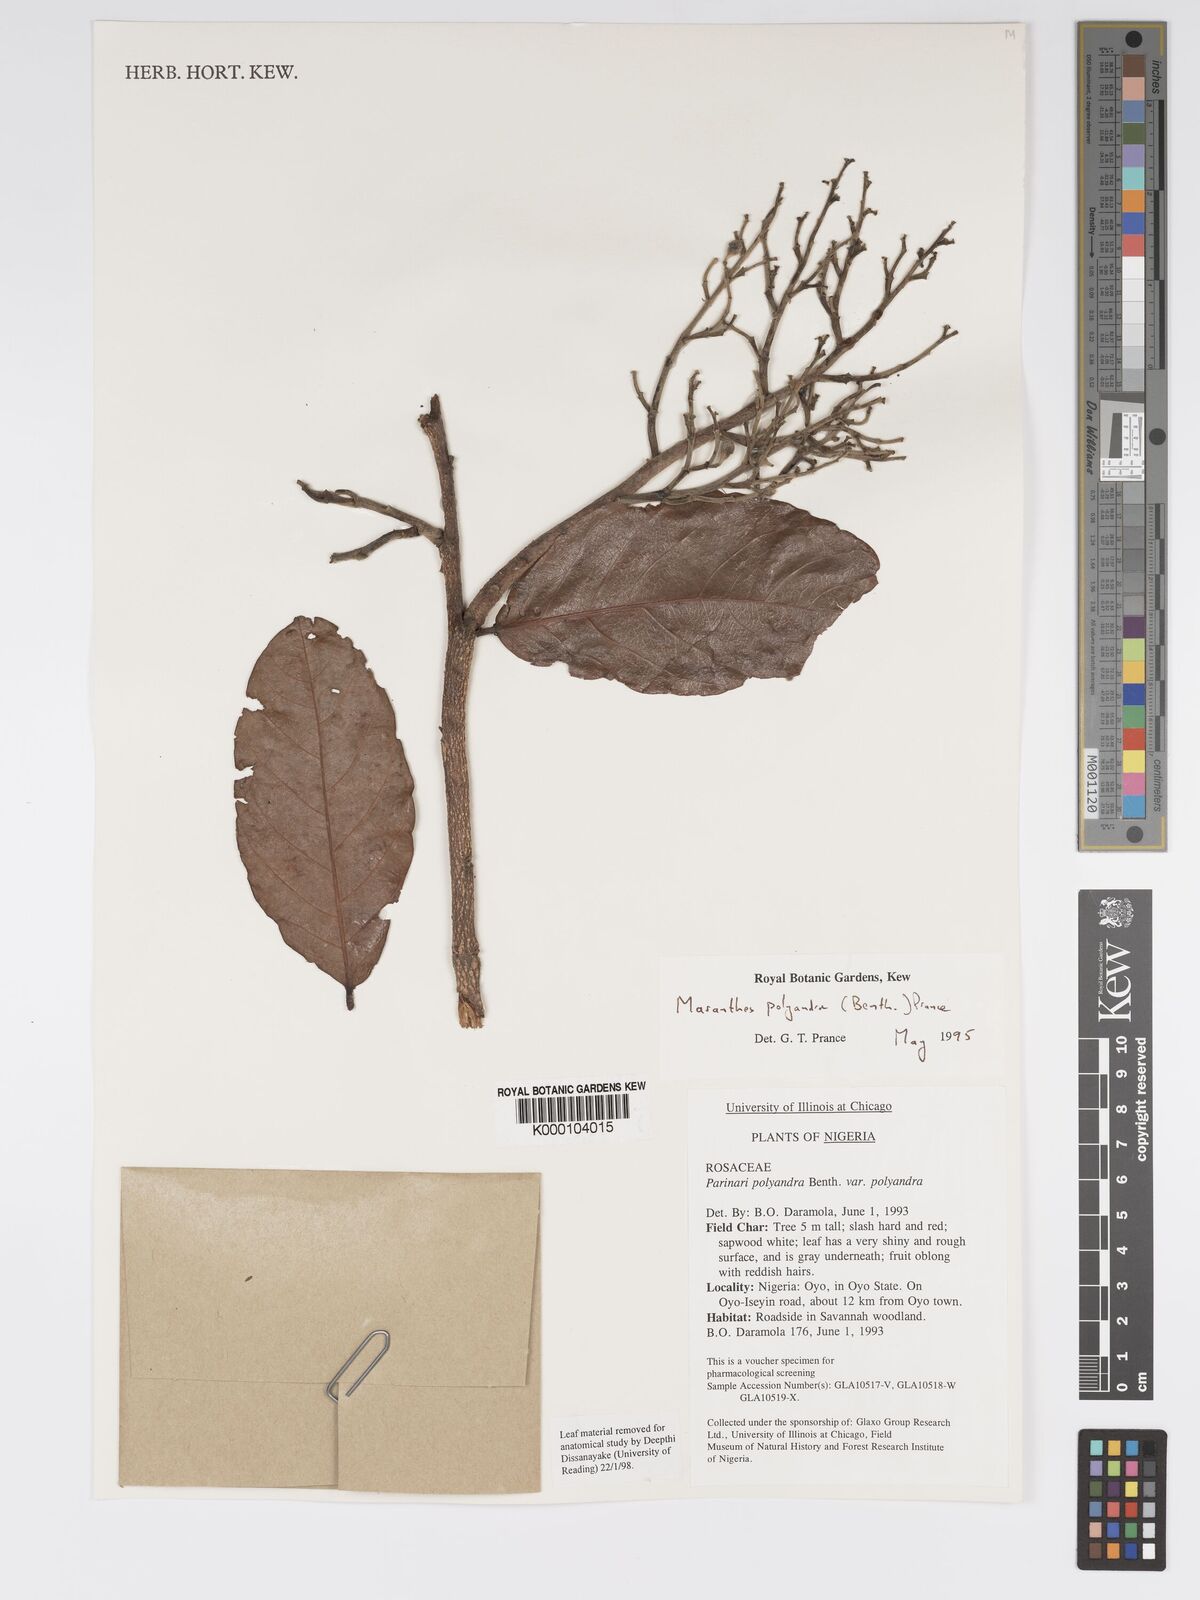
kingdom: Plantae
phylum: Tracheophyta
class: Magnoliopsida
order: Malpighiales
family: Chrysobalanaceae
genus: Maranthes
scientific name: Maranthes polyandra
